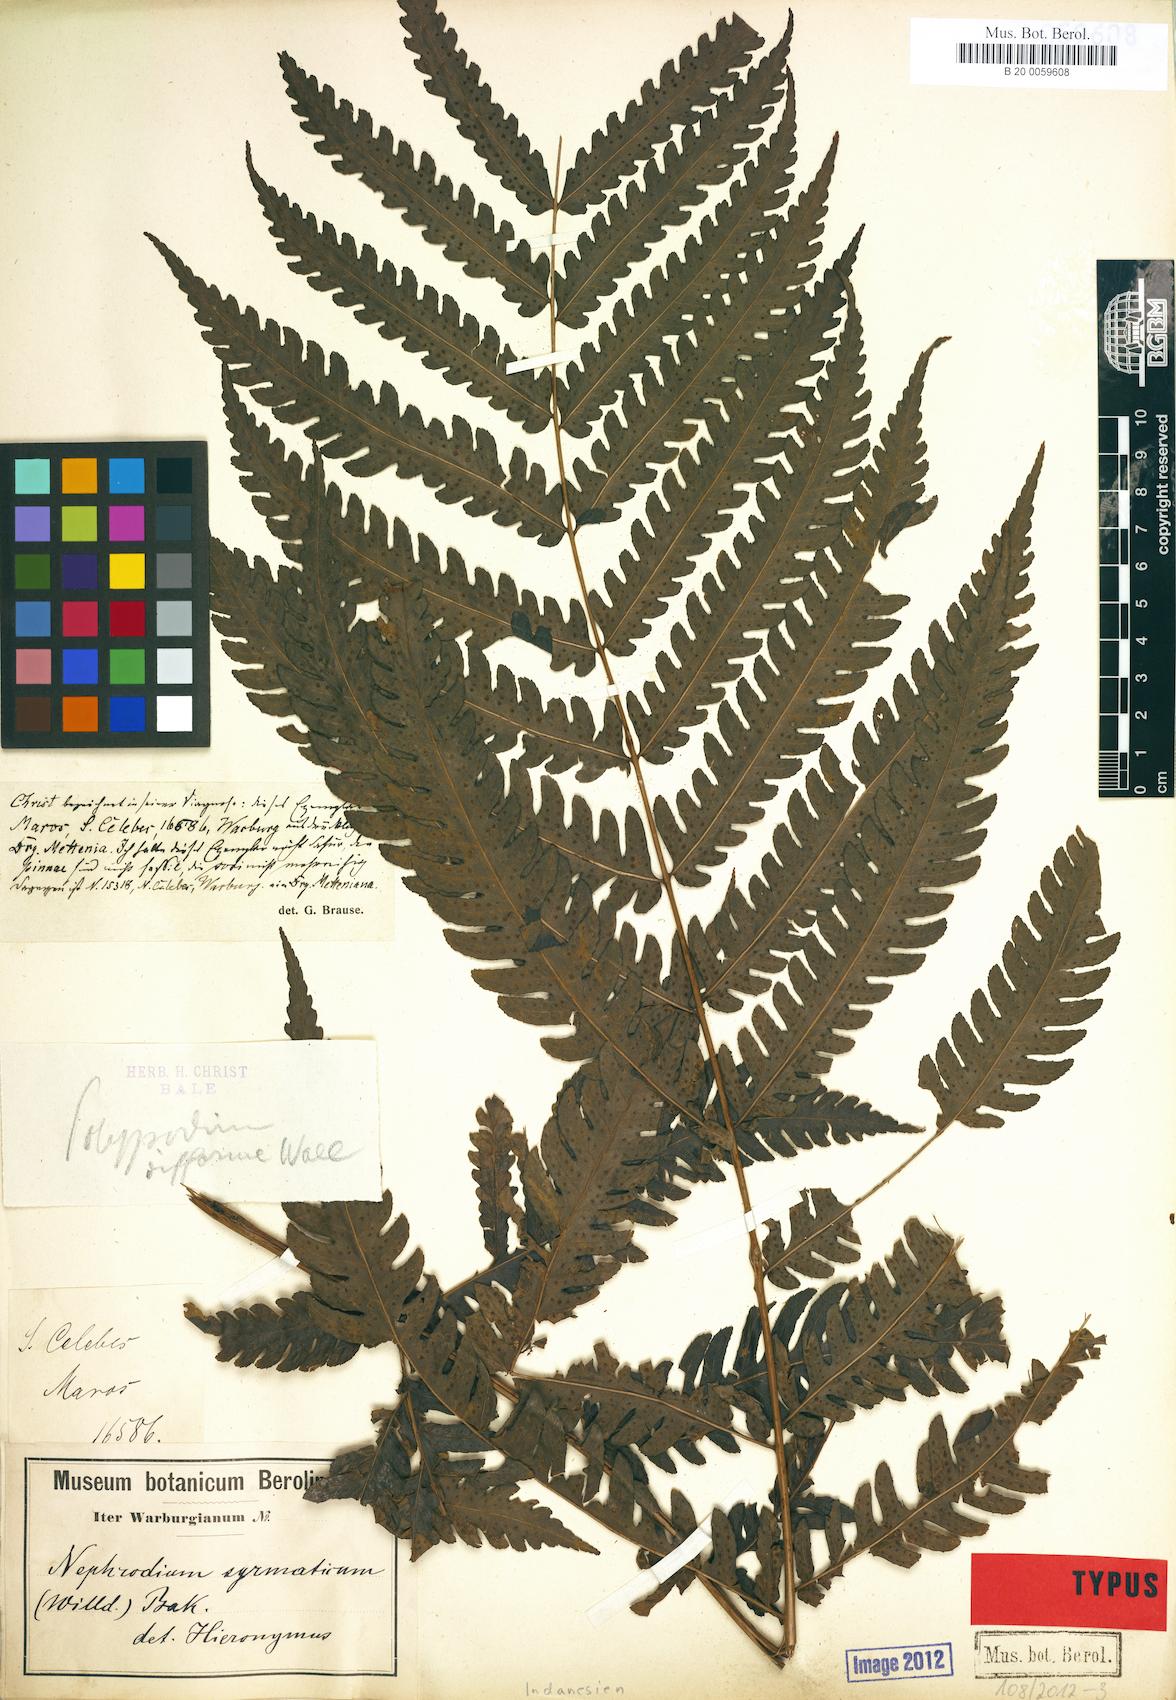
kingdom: Plantae
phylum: Tracheophyta
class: Polypodiopsida
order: Polypodiales
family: Dryopteridaceae
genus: Polystichum
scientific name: Polystichum multifidum
